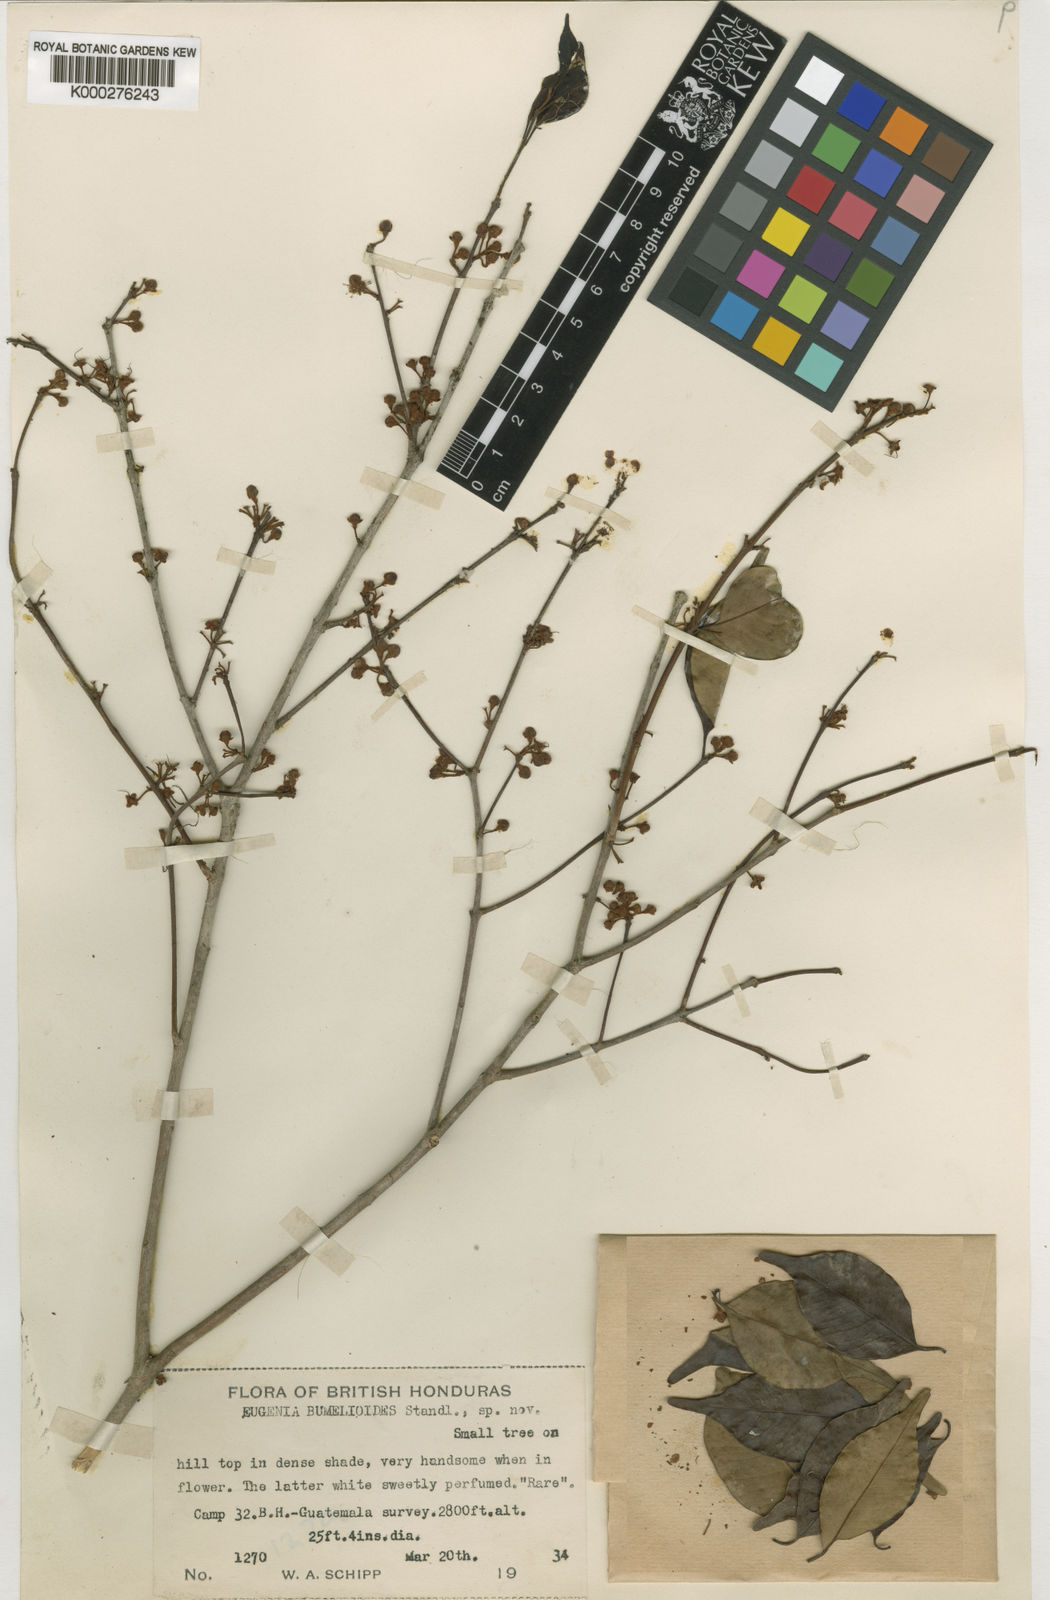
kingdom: Plantae
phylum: Tracheophyta
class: Magnoliopsida
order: Myrtales
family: Myrtaceae
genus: Eugenia
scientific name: Eugenia
